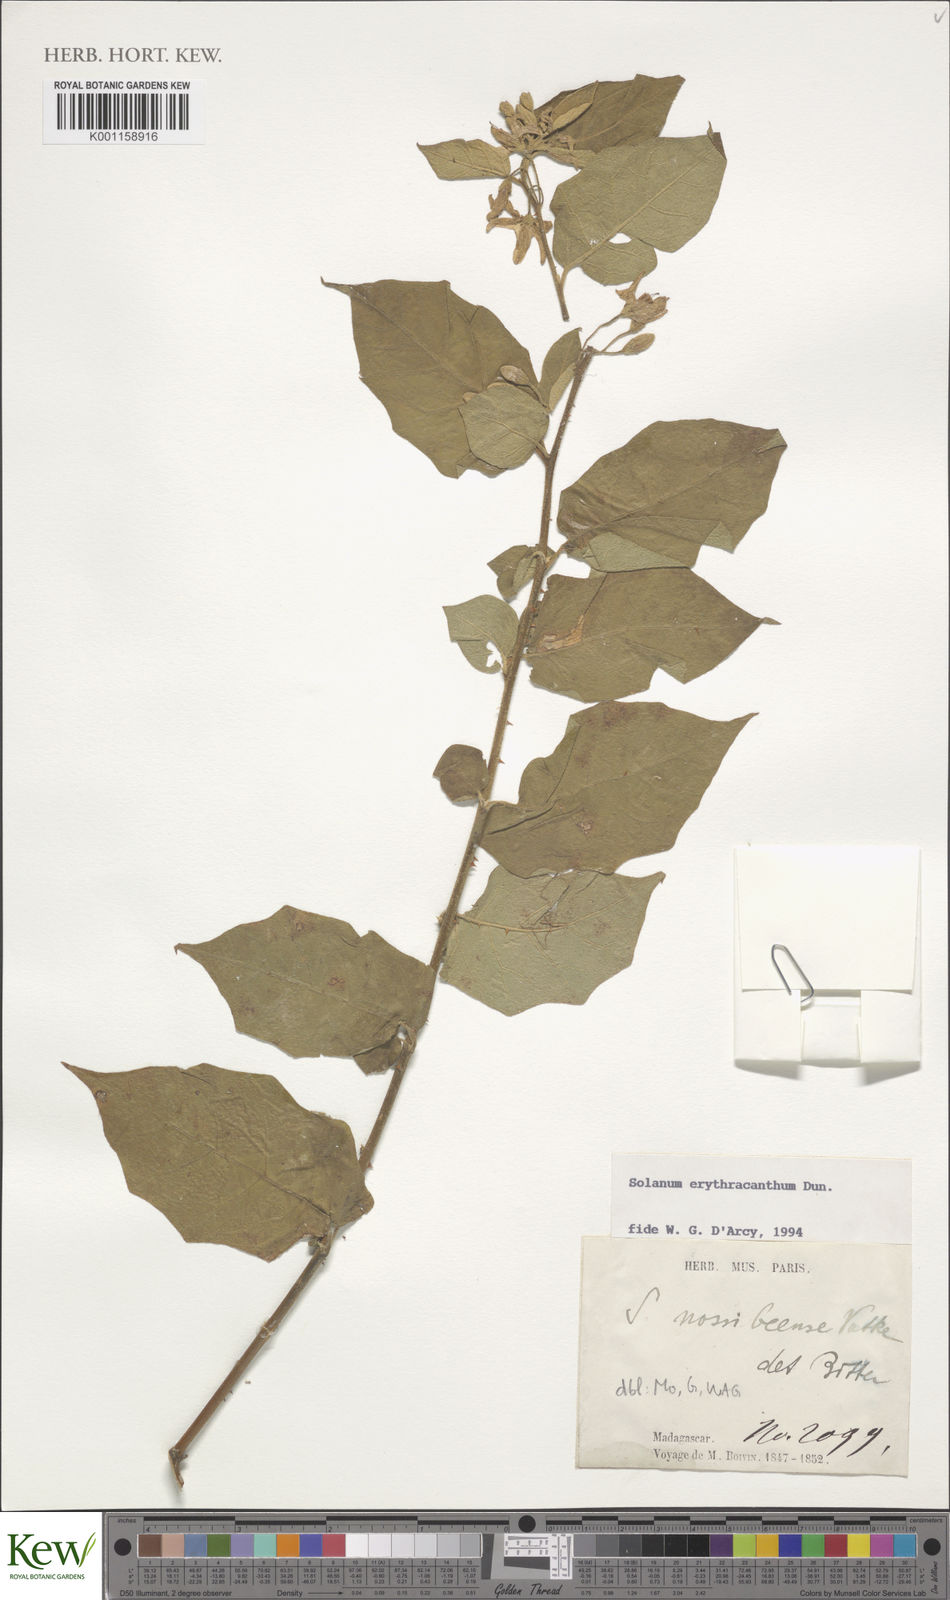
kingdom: Plantae
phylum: Tracheophyta
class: Magnoliopsida
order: Solanales
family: Solanaceae
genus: Solanum
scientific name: Solanum erythracanthum
